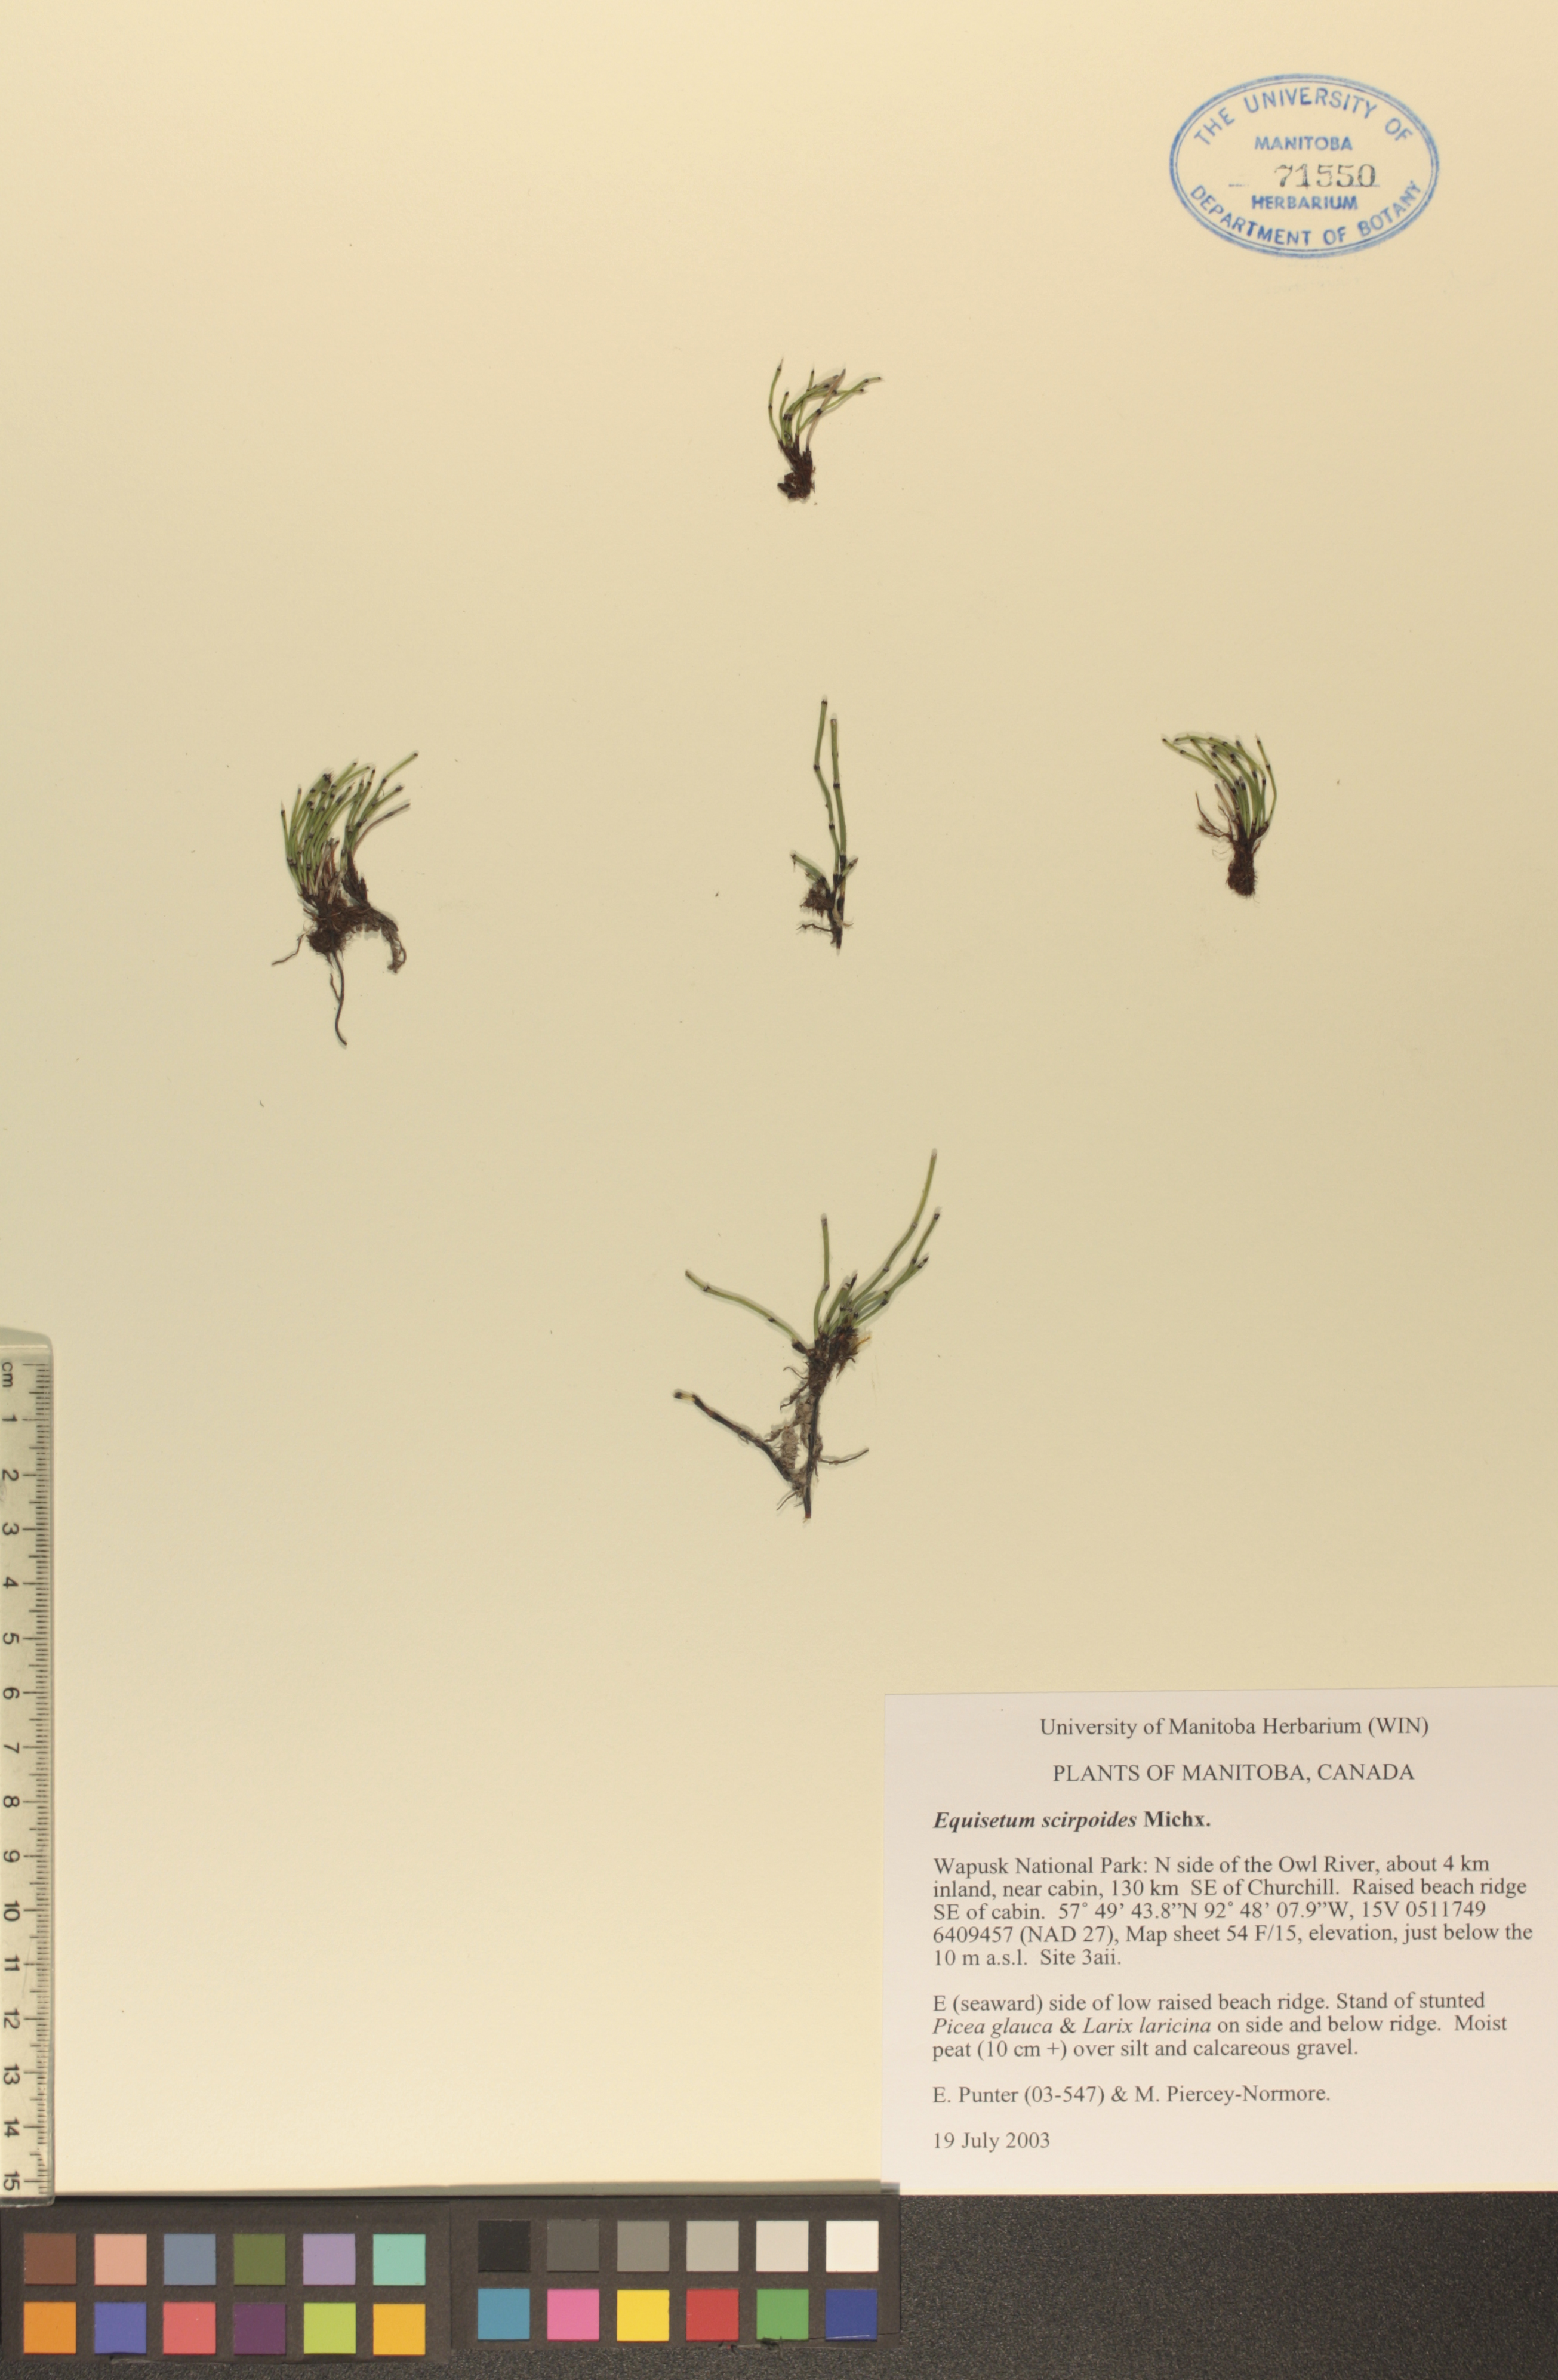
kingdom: Plantae
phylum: Tracheophyta
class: Polypodiopsida
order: Equisetales
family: Equisetaceae
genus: Equisetum
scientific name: Equisetum scirpoides
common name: Delicate horsetail
